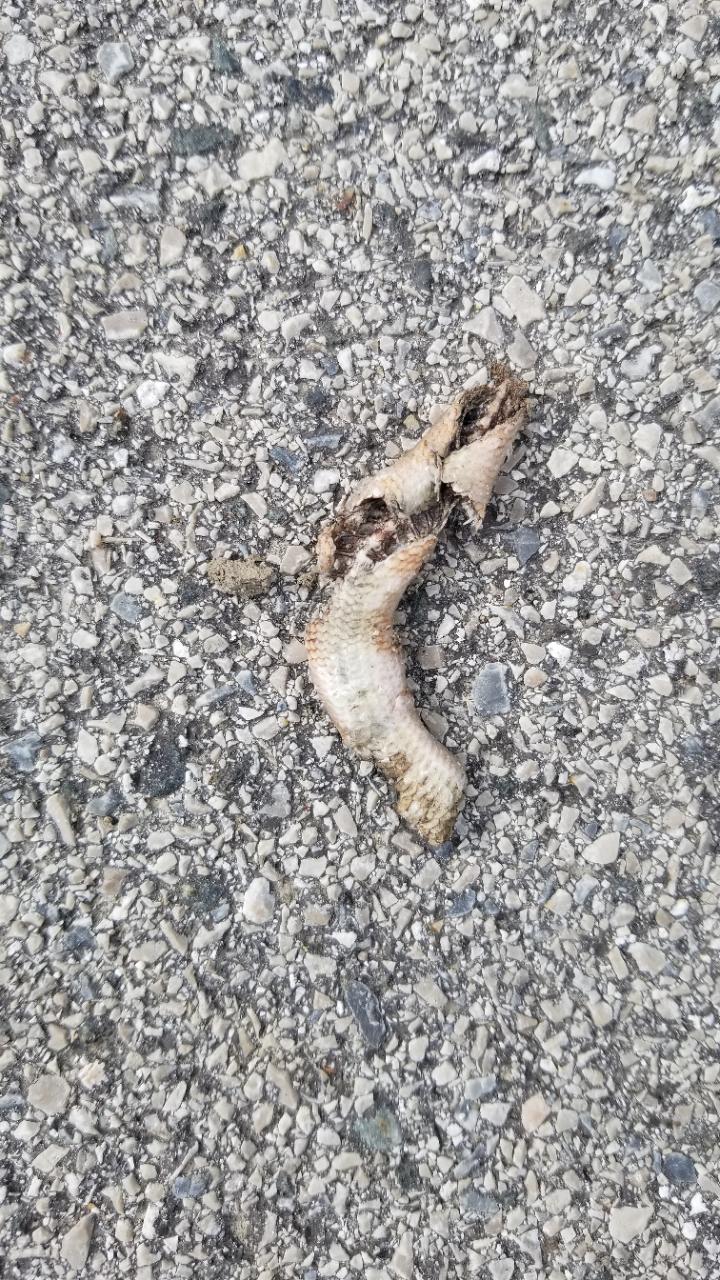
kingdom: Animalia
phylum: Chordata
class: Squamata
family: Anguidae
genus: Anguis
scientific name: Anguis fragilis
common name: Slow worm
